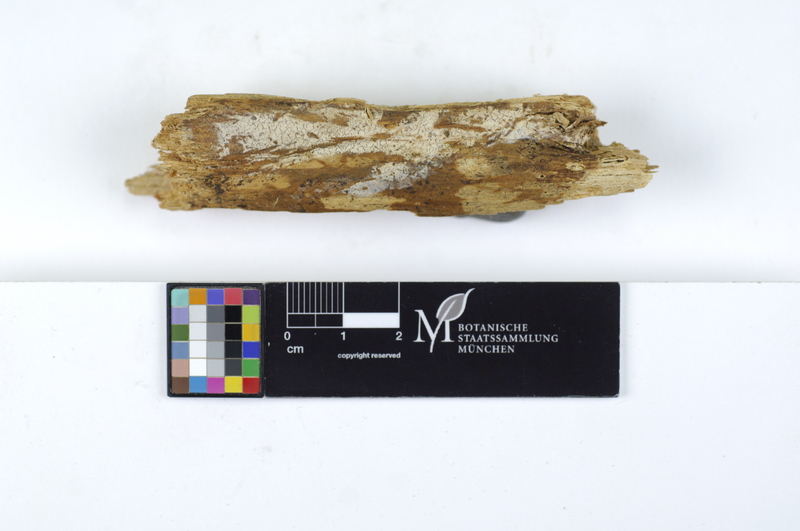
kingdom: Plantae
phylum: Tracheophyta
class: Pinopsida
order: Pinales
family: Pinaceae
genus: Picea
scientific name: Picea
